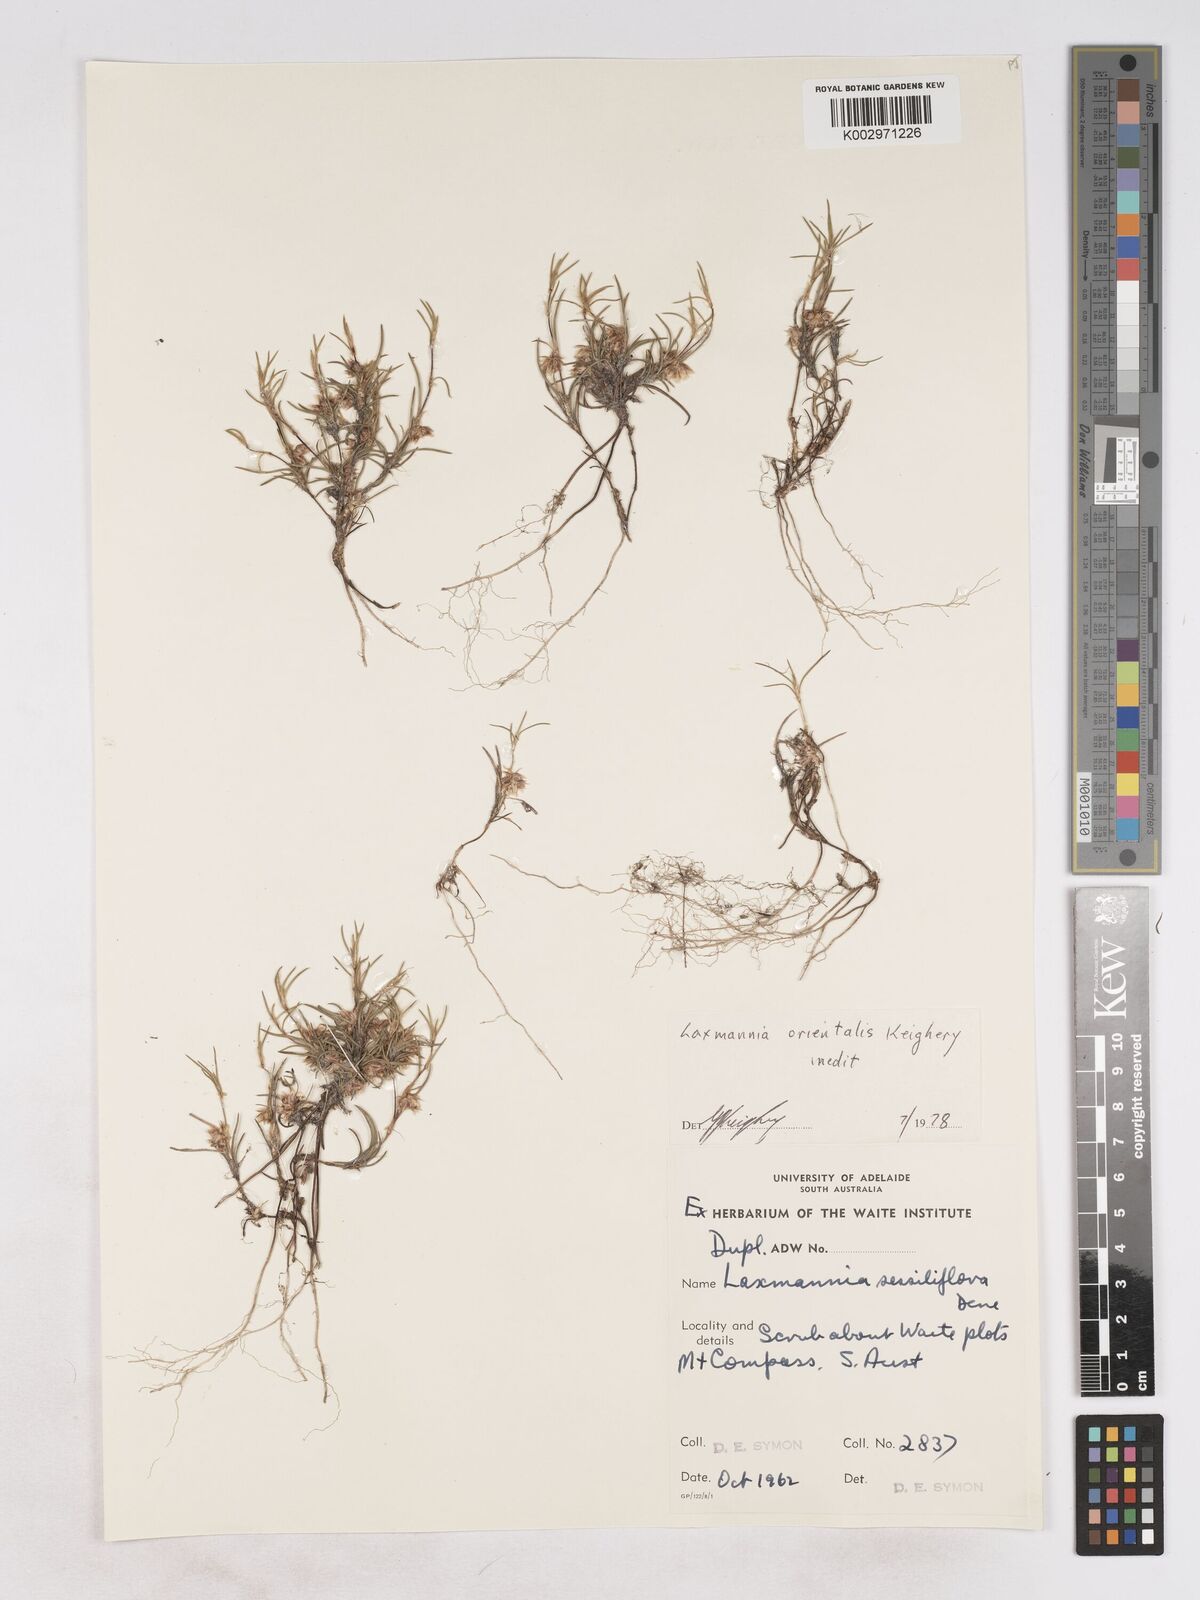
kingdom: Plantae
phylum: Tracheophyta
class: Liliopsida
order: Asparagales
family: Asparagaceae
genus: Laxmannia
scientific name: Laxmannia orientalis
